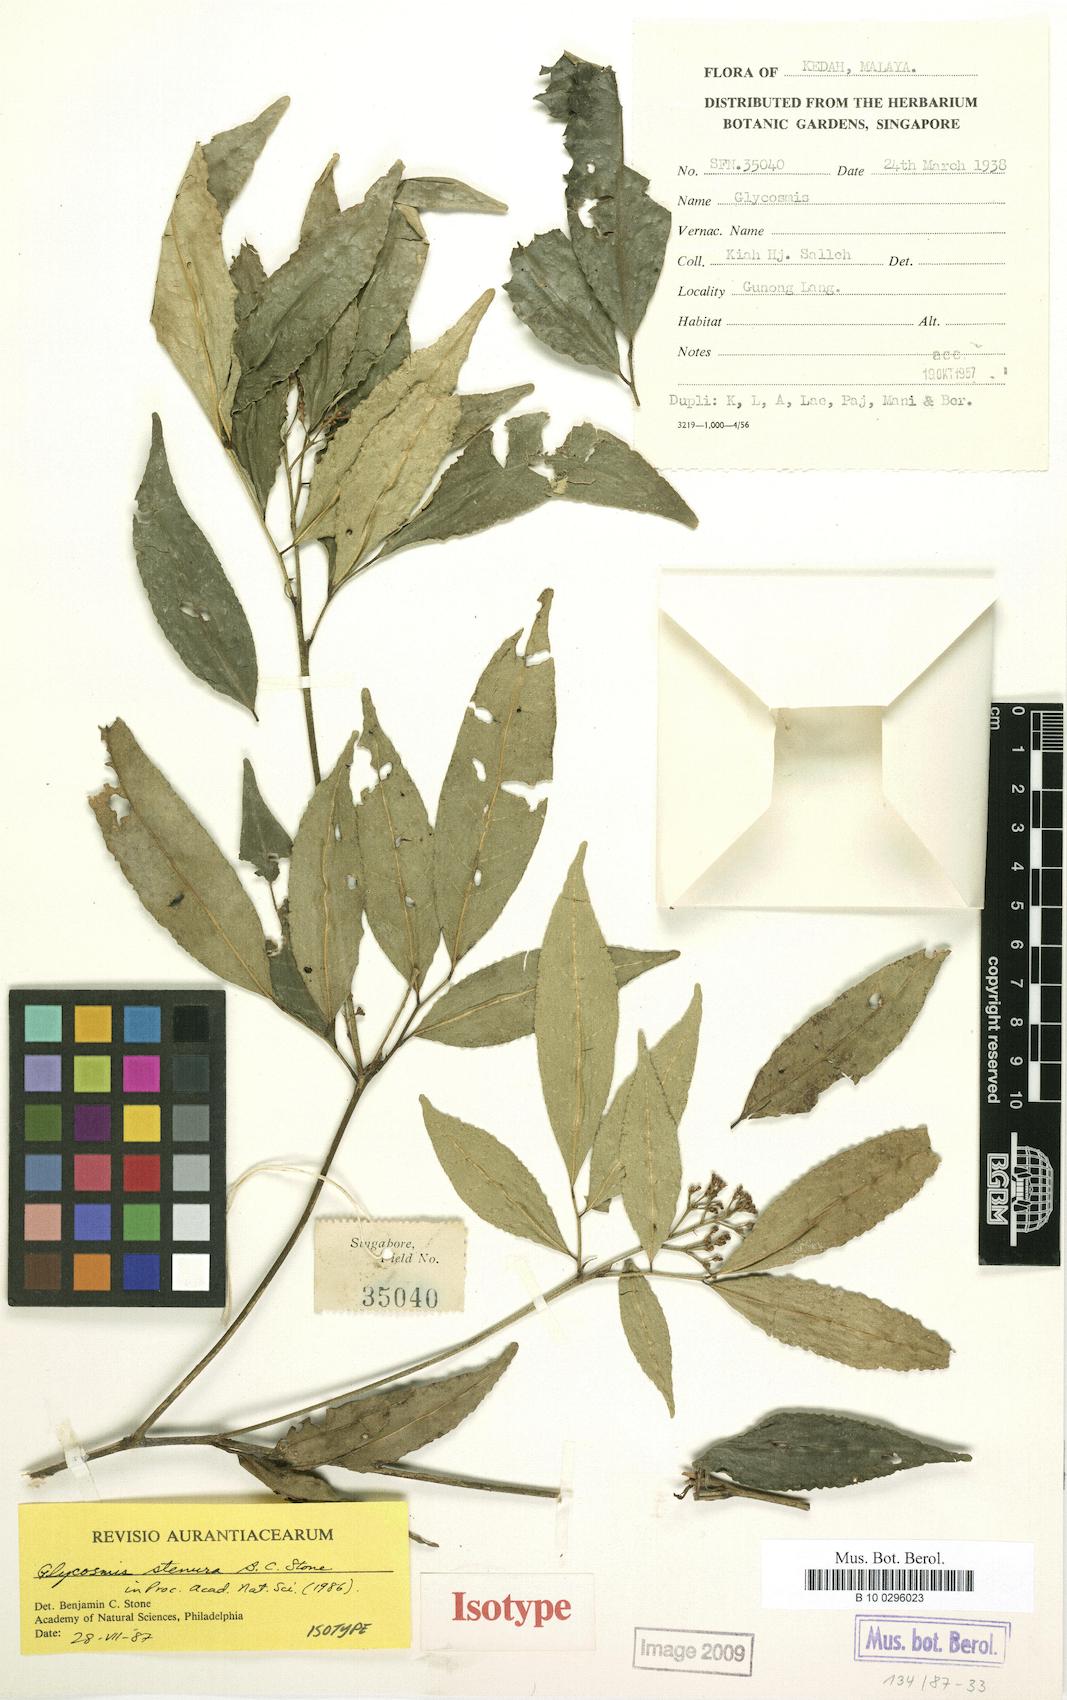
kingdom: Plantae
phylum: Tracheophyta
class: Magnoliopsida
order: Sapindales
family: Rutaceae
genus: Glycosmis
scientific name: Glycosmis stenura
